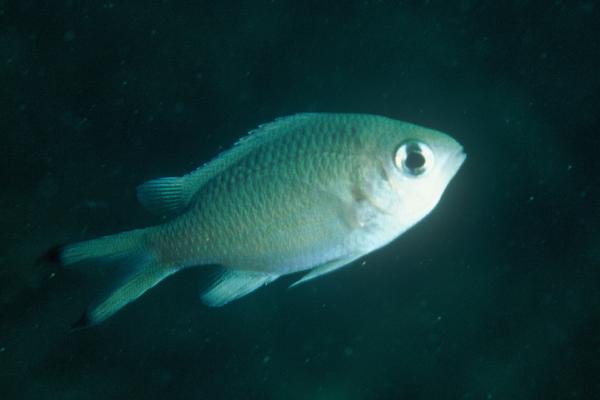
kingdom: Animalia
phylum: Chordata
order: Perciformes
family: Pomacentridae
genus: Chromis
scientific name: Chromis lepidolepis
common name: Scaly chromis
